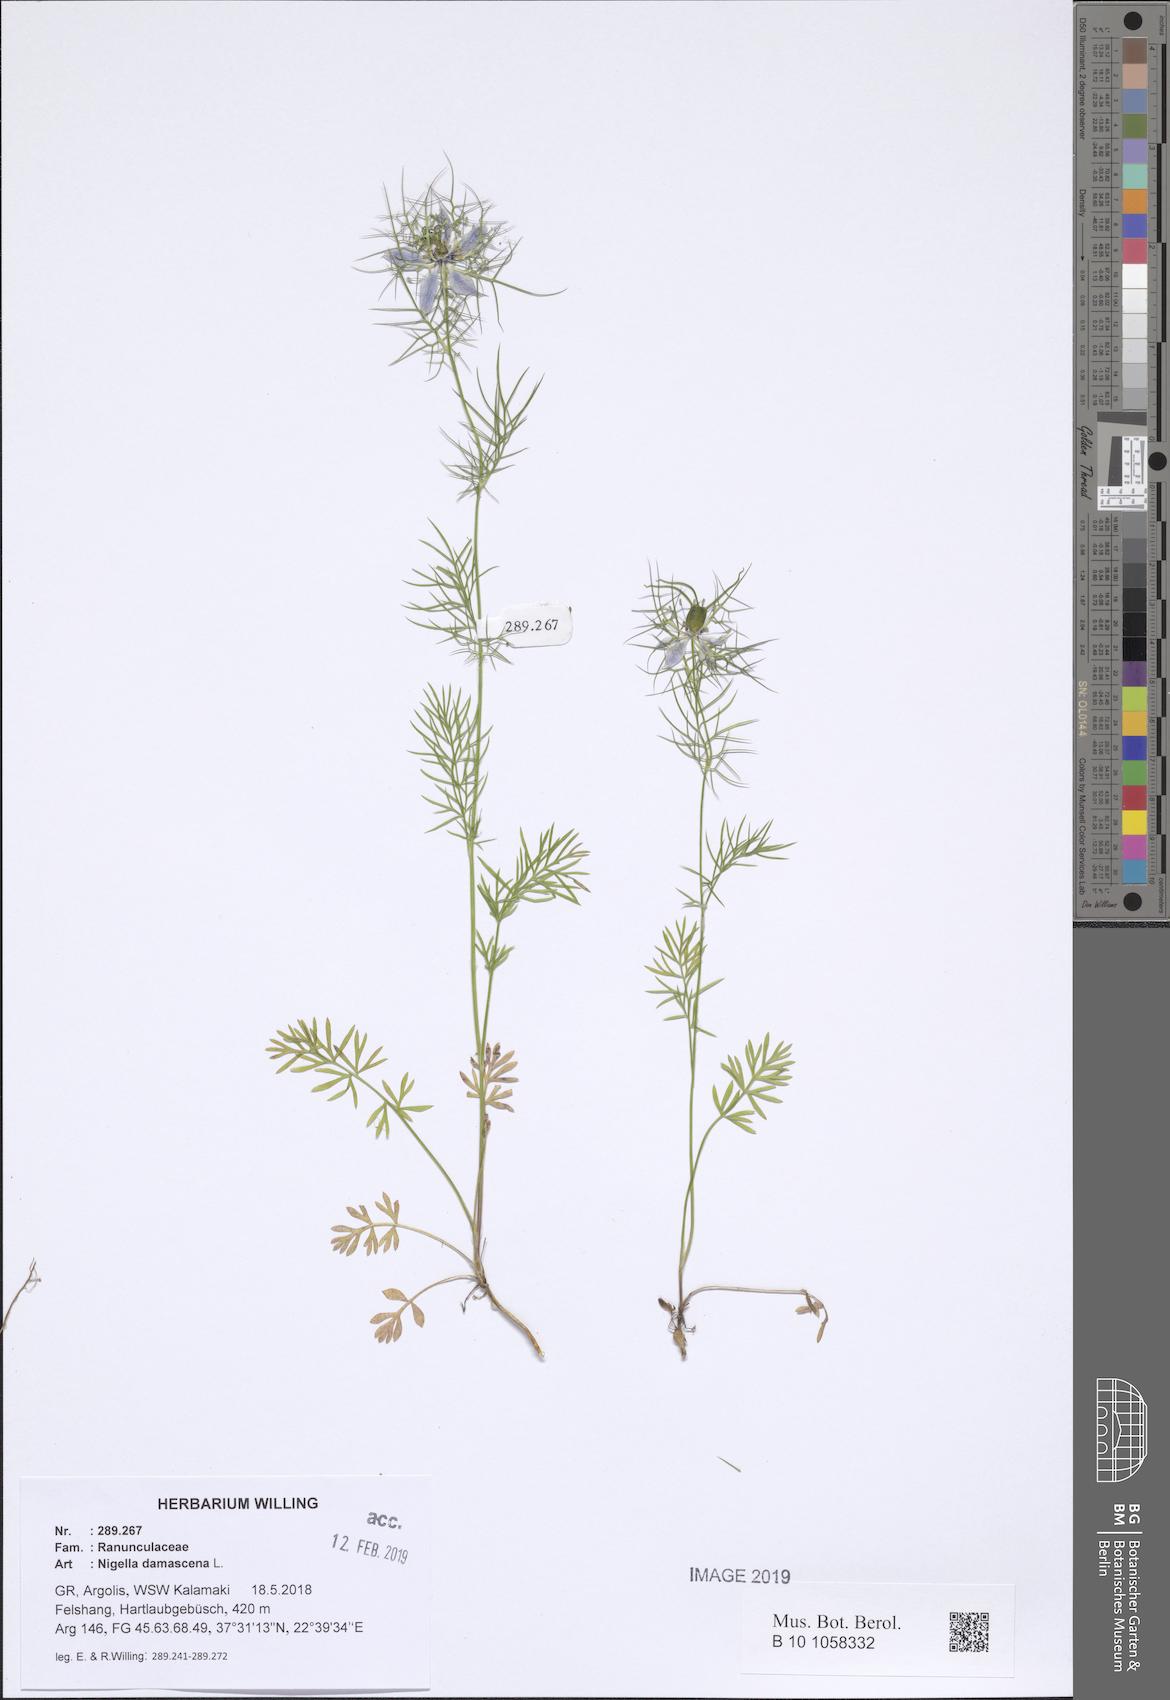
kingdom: Plantae
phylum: Tracheophyta
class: Magnoliopsida
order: Ranunculales
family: Ranunculaceae
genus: Nigella
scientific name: Nigella damascena
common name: Love-in-a-mist
